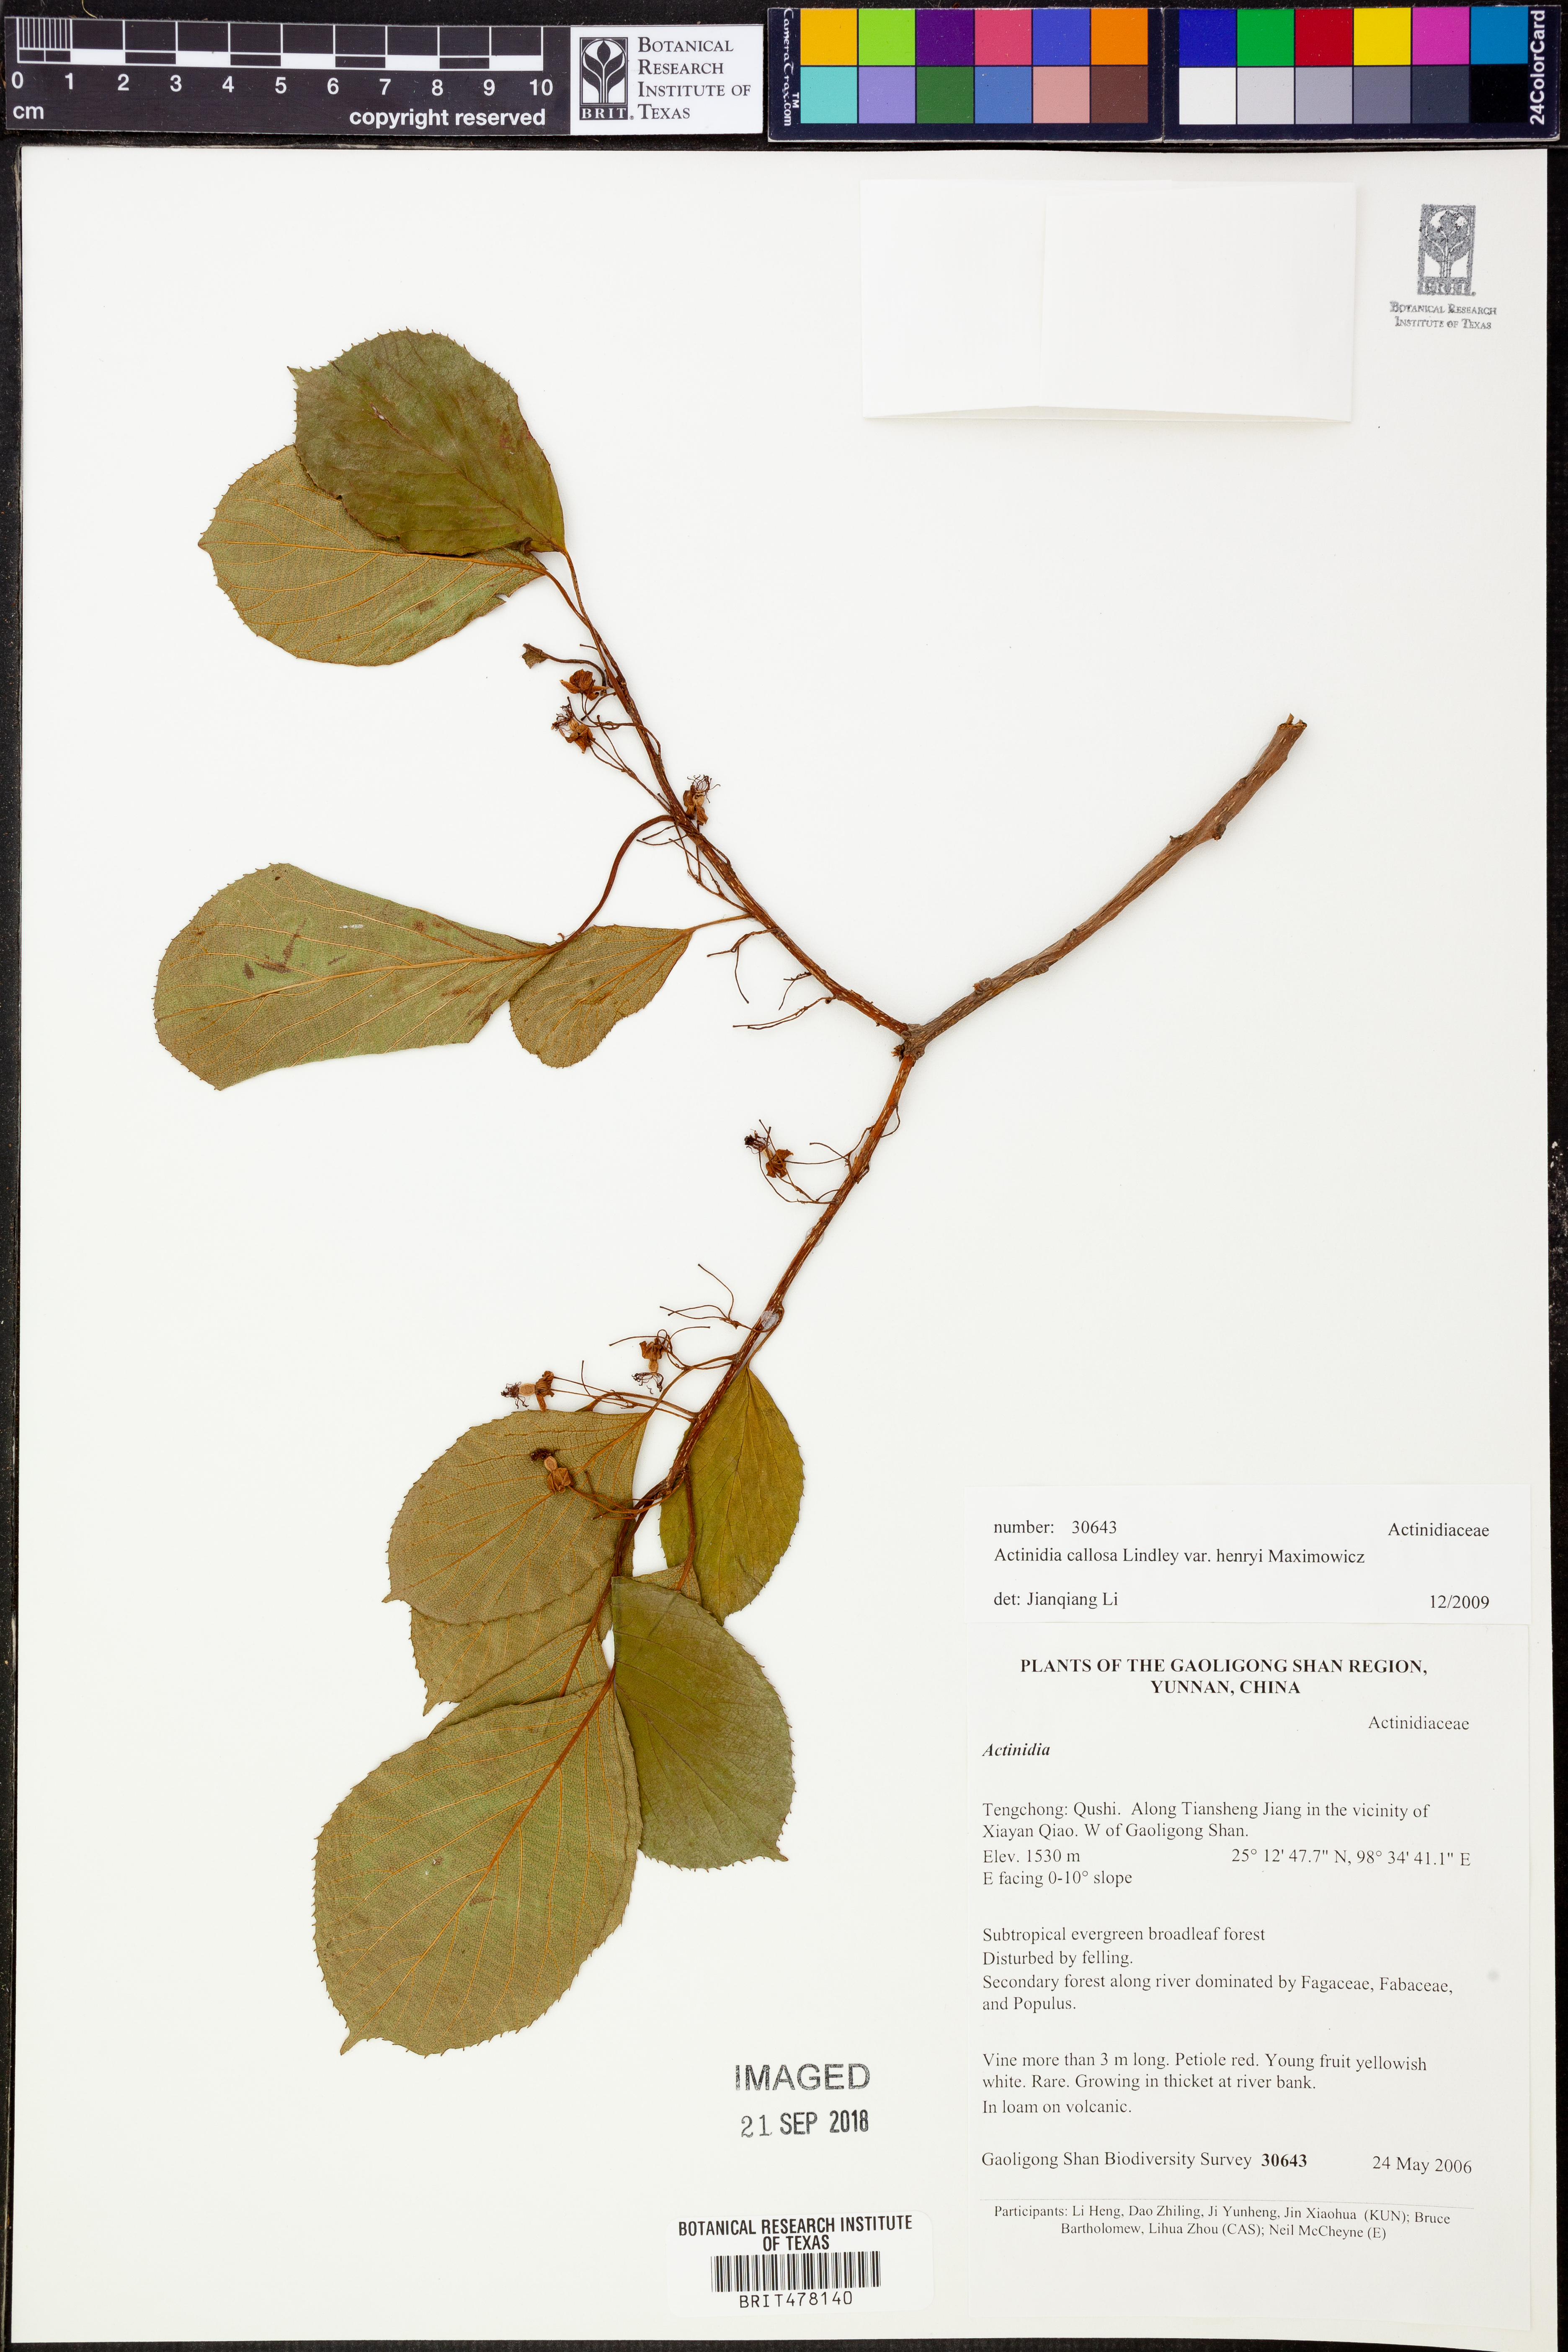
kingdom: Plantae
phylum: Tracheophyta
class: Magnoliopsida
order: Ericales
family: Actinidiaceae
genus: Actinidia
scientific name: Actinidia rufa
